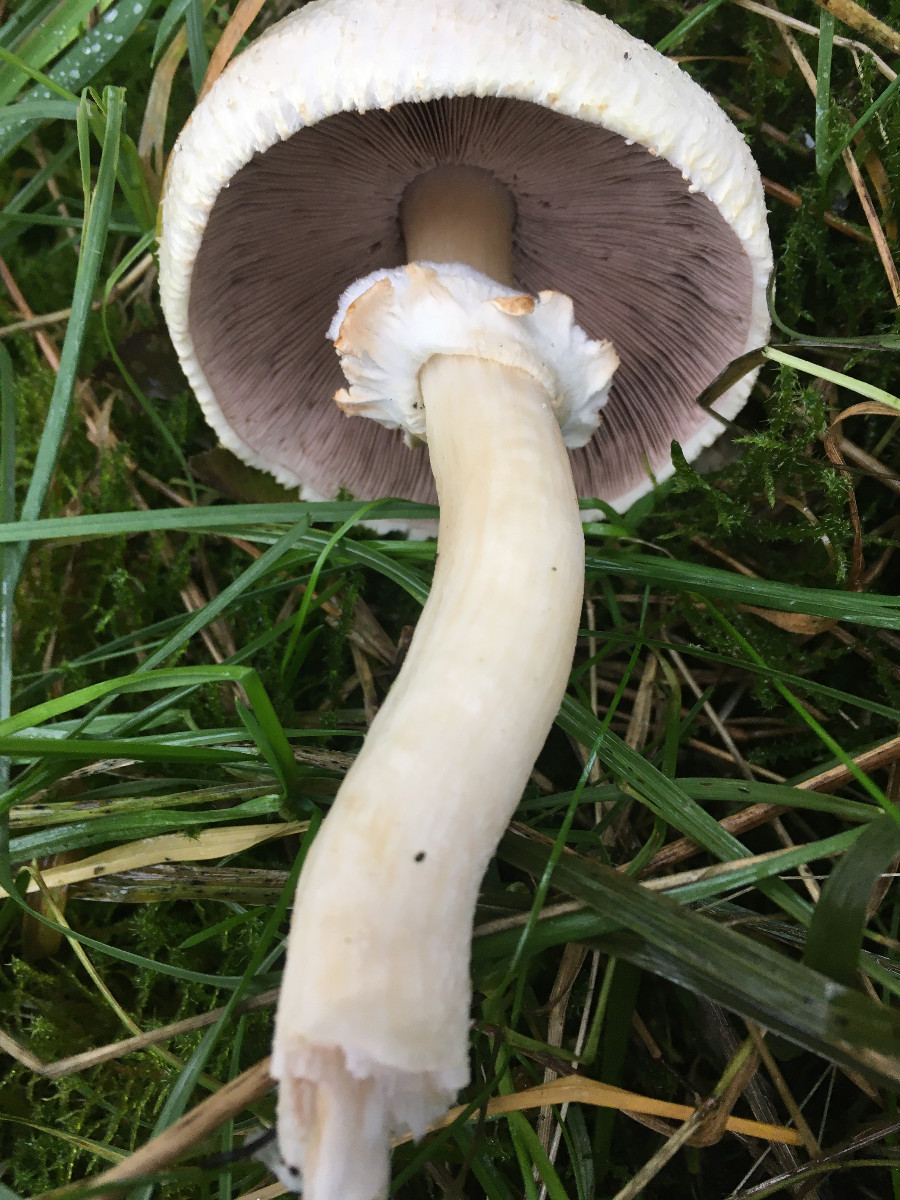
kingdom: Fungi
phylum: Basidiomycota
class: Agaricomycetes
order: Agaricales
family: Agaricaceae
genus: Agaricus
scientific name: Agaricus
